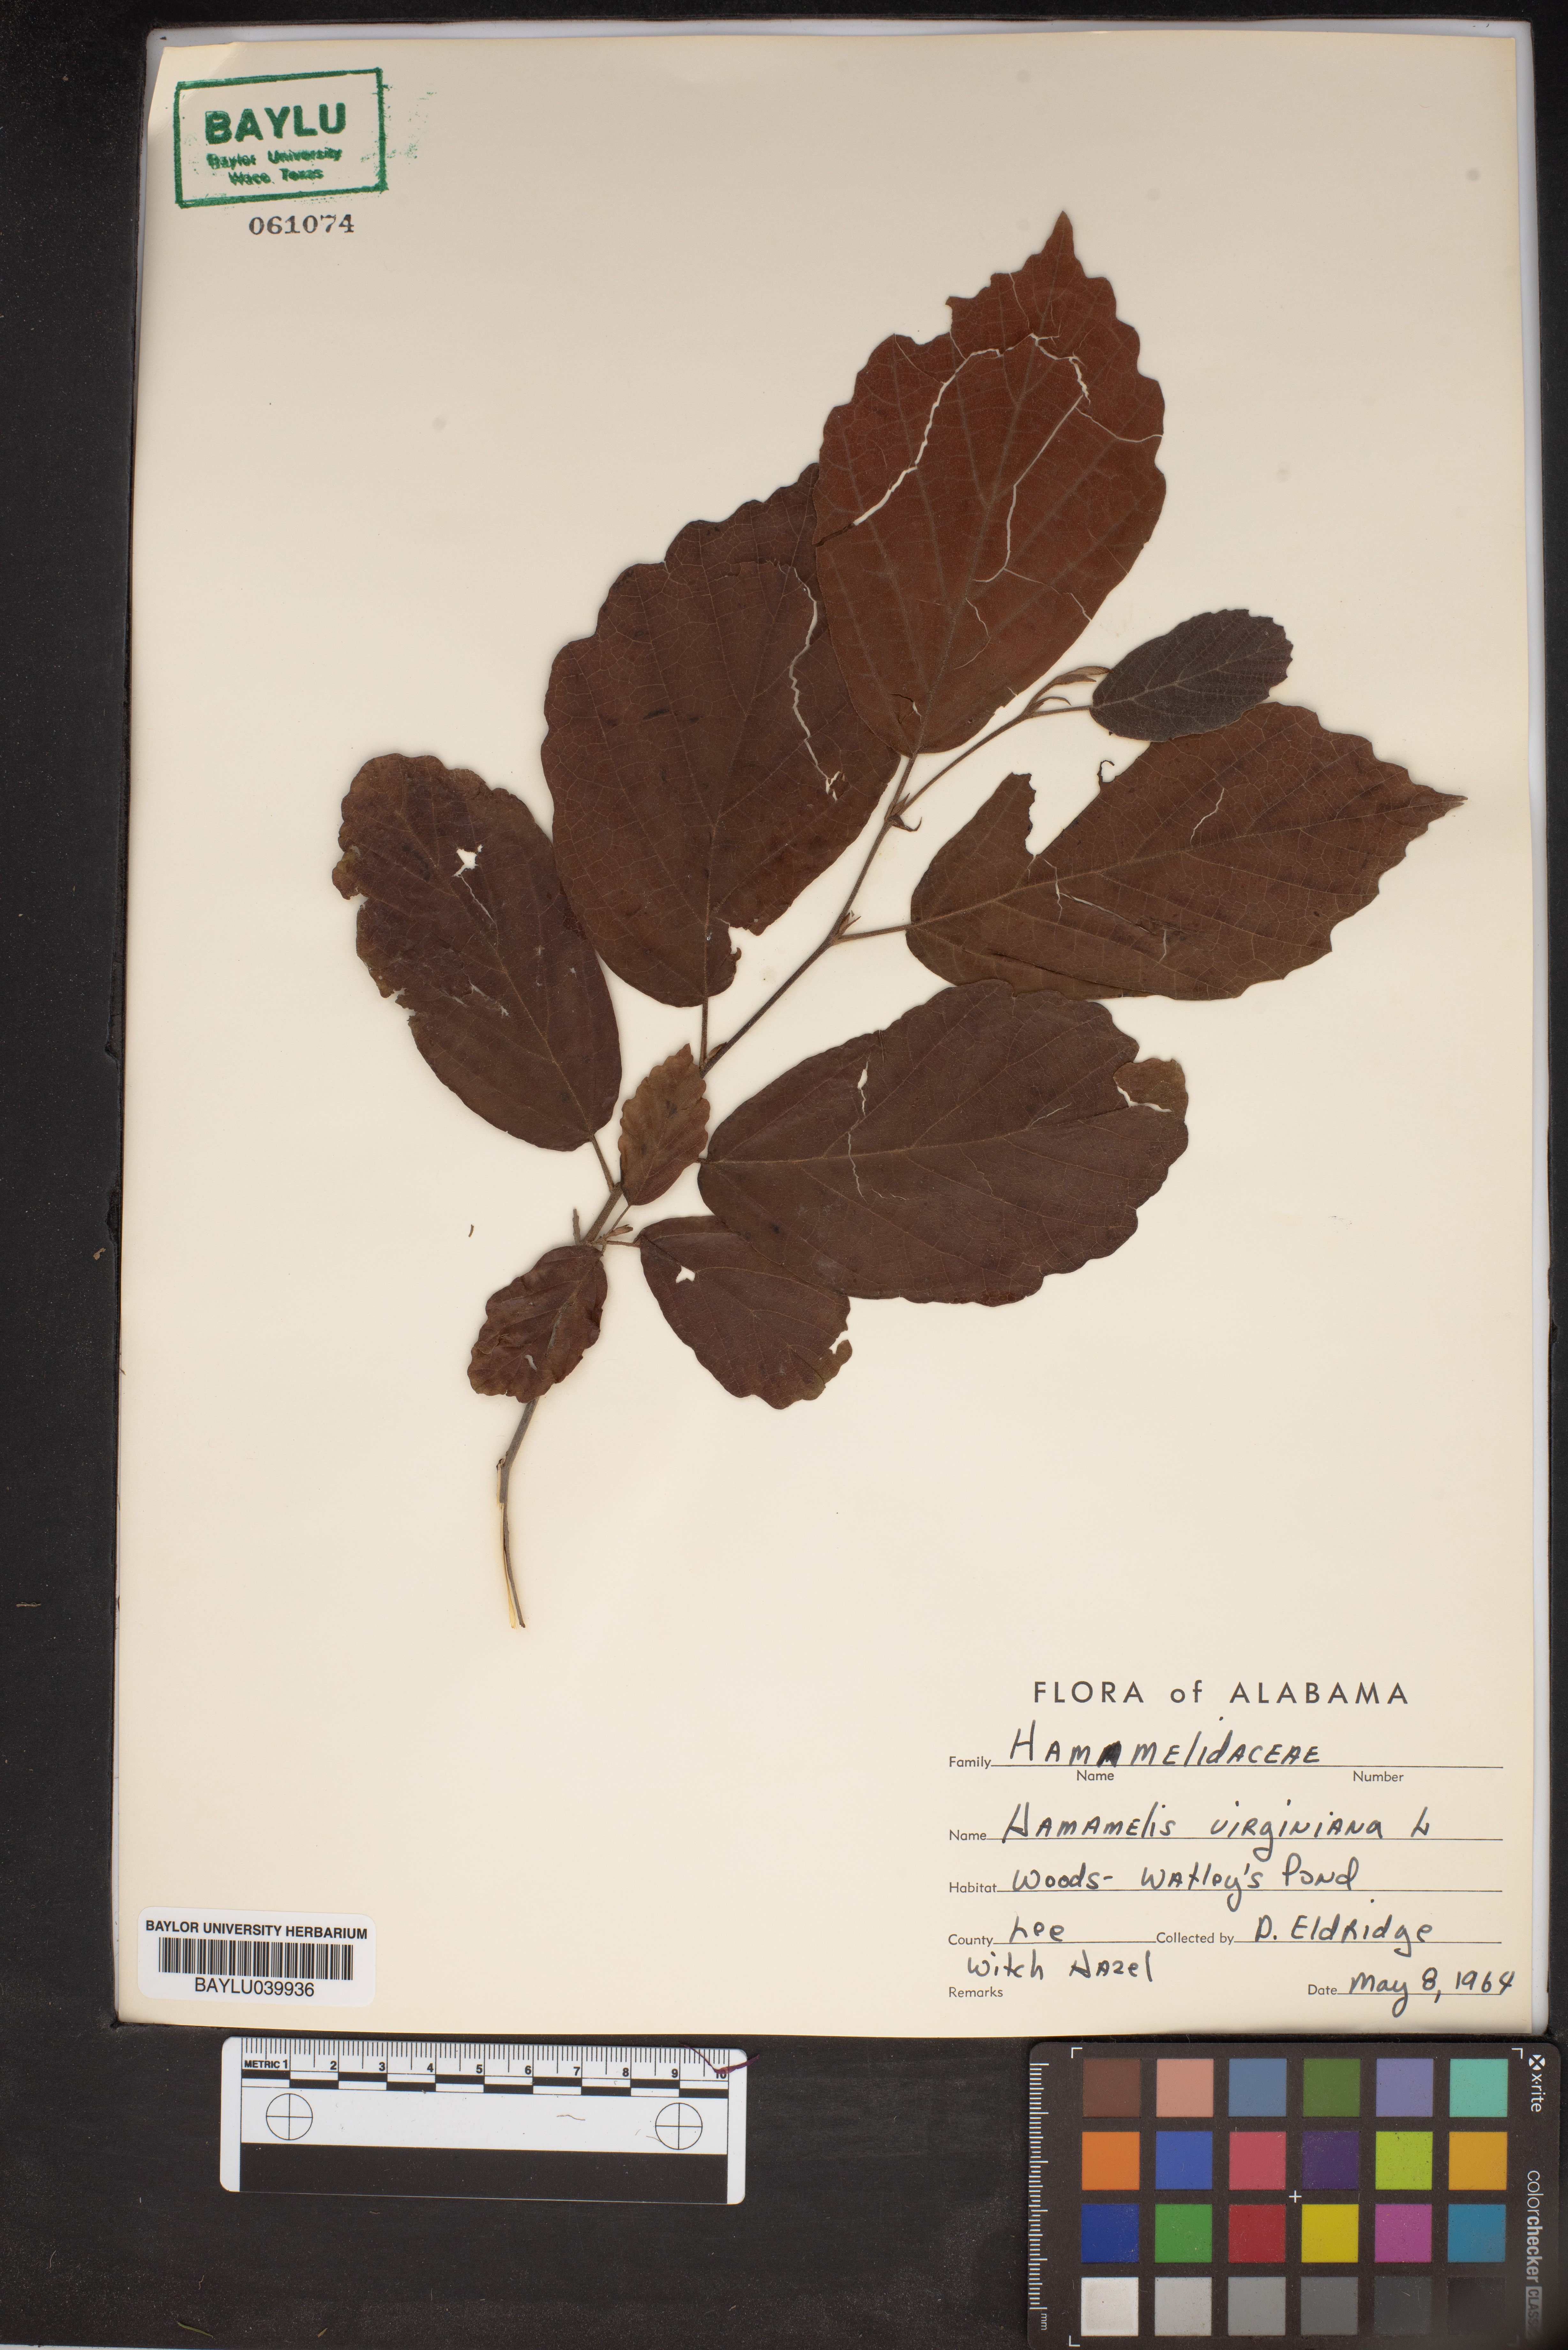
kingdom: Plantae
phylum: Tracheophyta
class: Magnoliopsida
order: Saxifragales
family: Hamamelidaceae
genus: Hamamelis
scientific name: Hamamelis virginiana
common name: Witch-hazel
